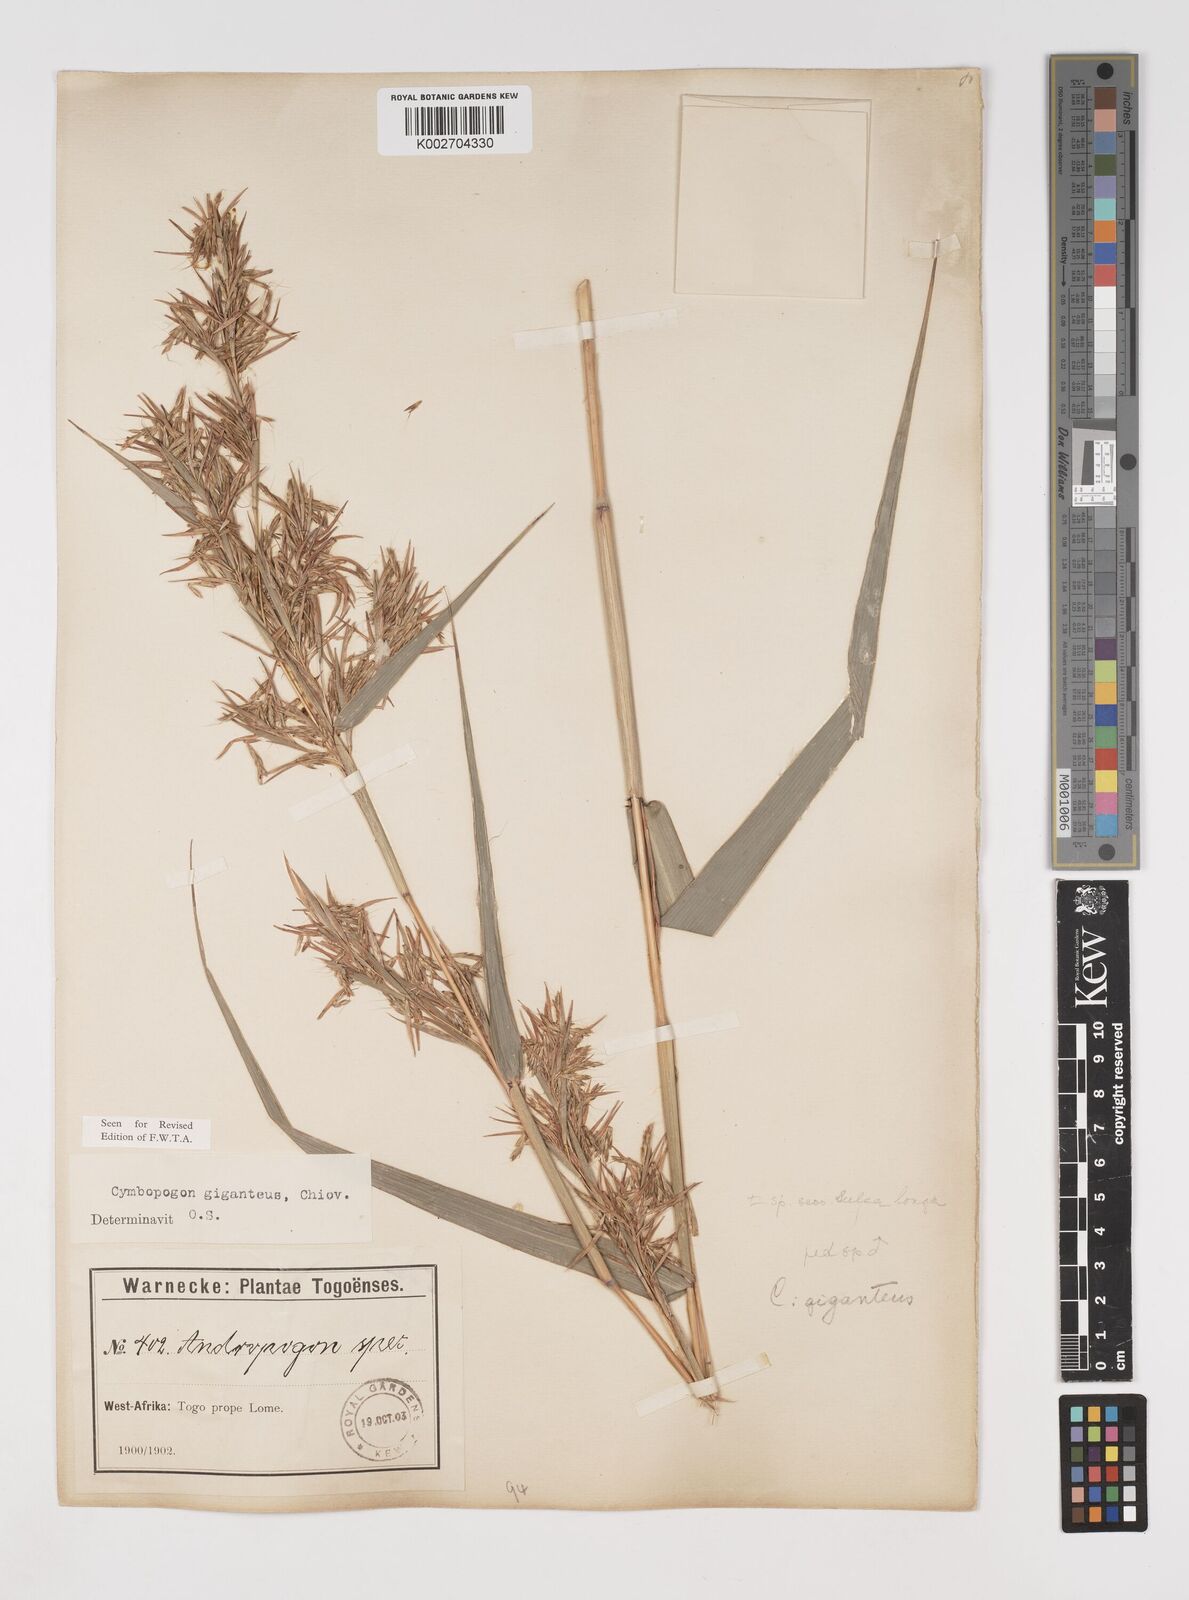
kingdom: Plantae
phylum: Tracheophyta
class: Liliopsida
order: Poales
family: Poaceae
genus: Cymbopogon
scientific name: Cymbopogon giganteus
